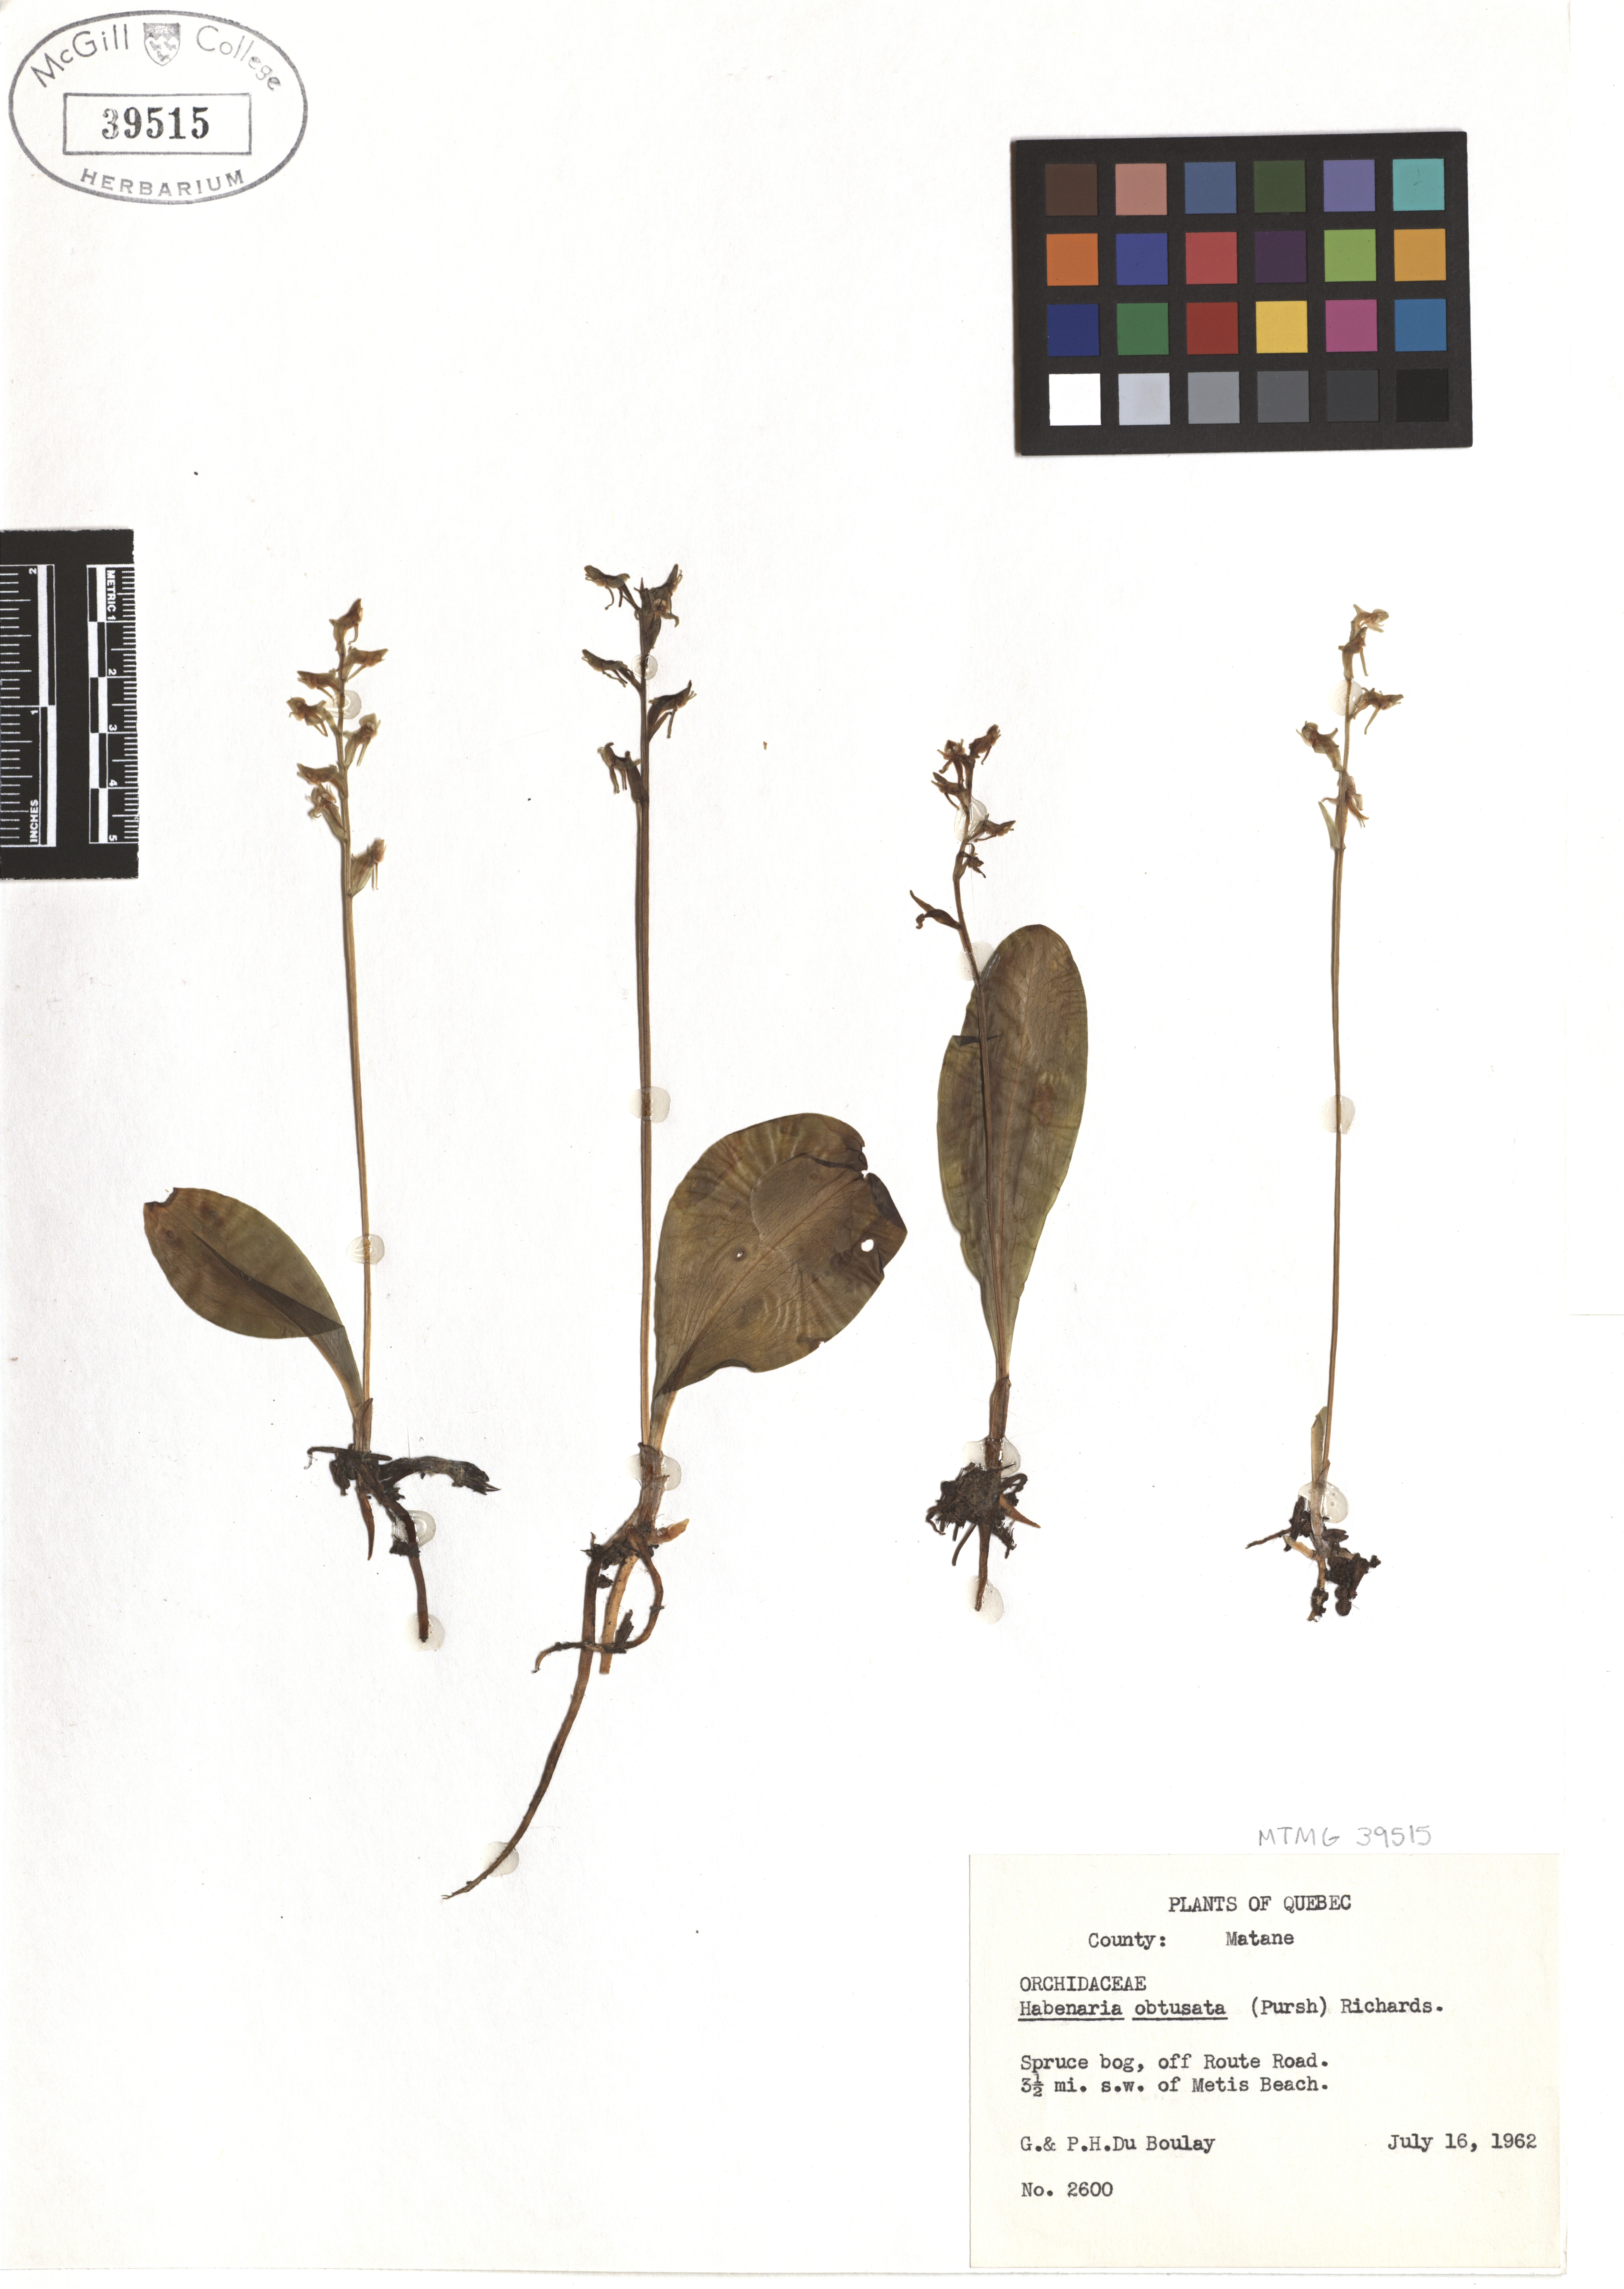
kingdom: Plantae
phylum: Tracheophyta
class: Liliopsida
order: Asparagales
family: Orchidaceae
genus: Platanthera
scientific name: Platanthera obtusata
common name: Blunt bog orchid
